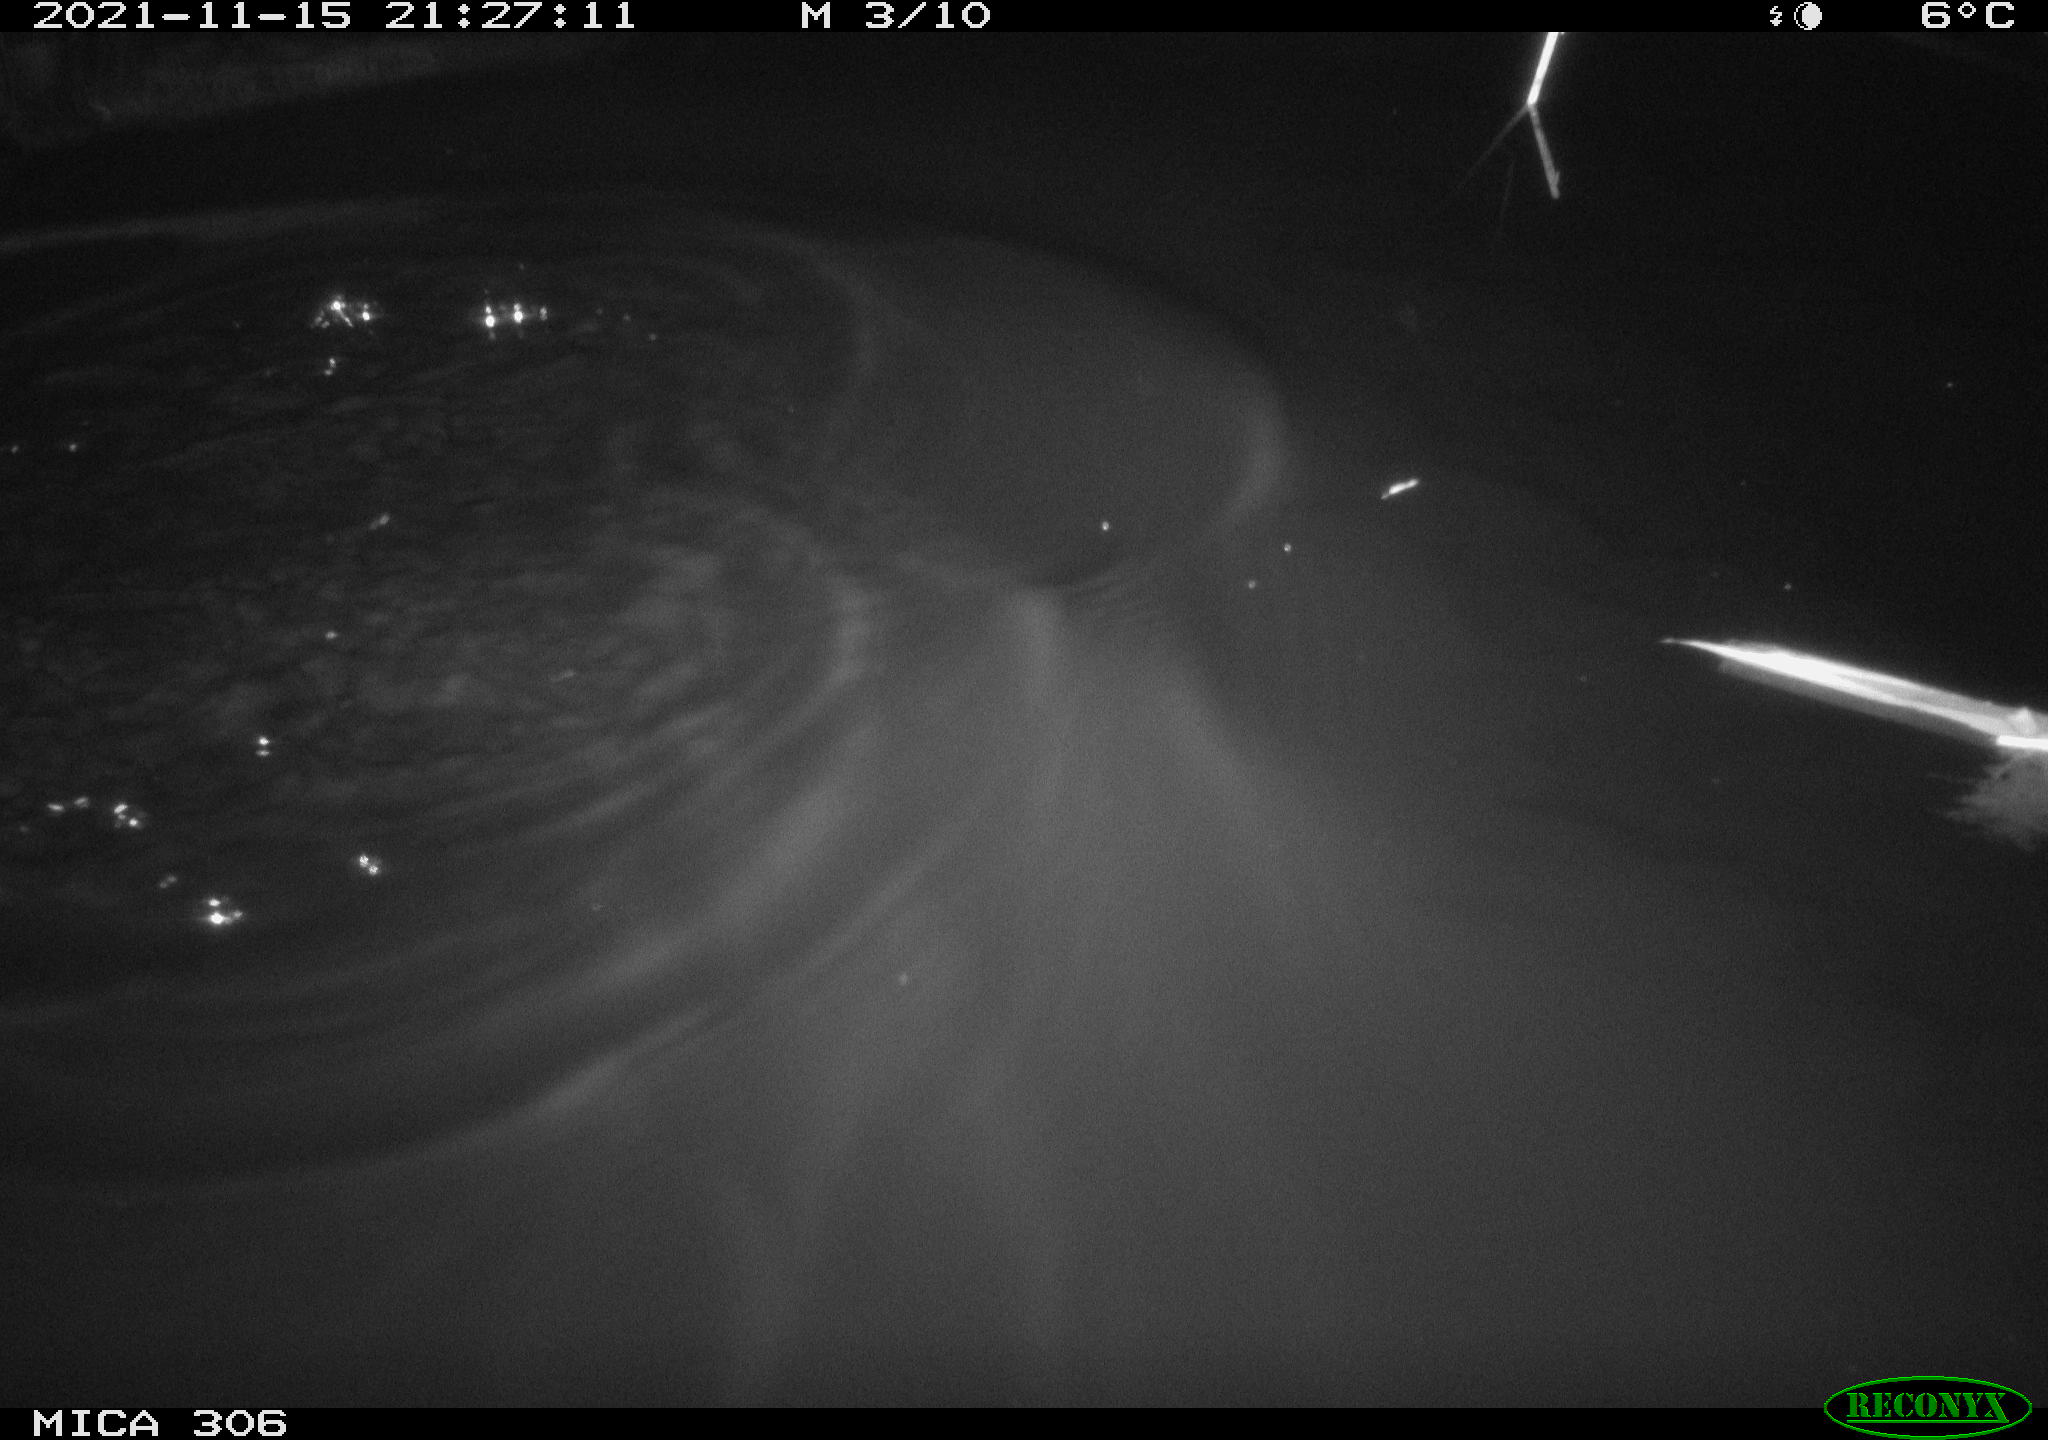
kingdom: Animalia
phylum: Chordata
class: Mammalia
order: Rodentia
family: Muridae
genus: Rattus
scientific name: Rattus norvegicus
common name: Brown rat
